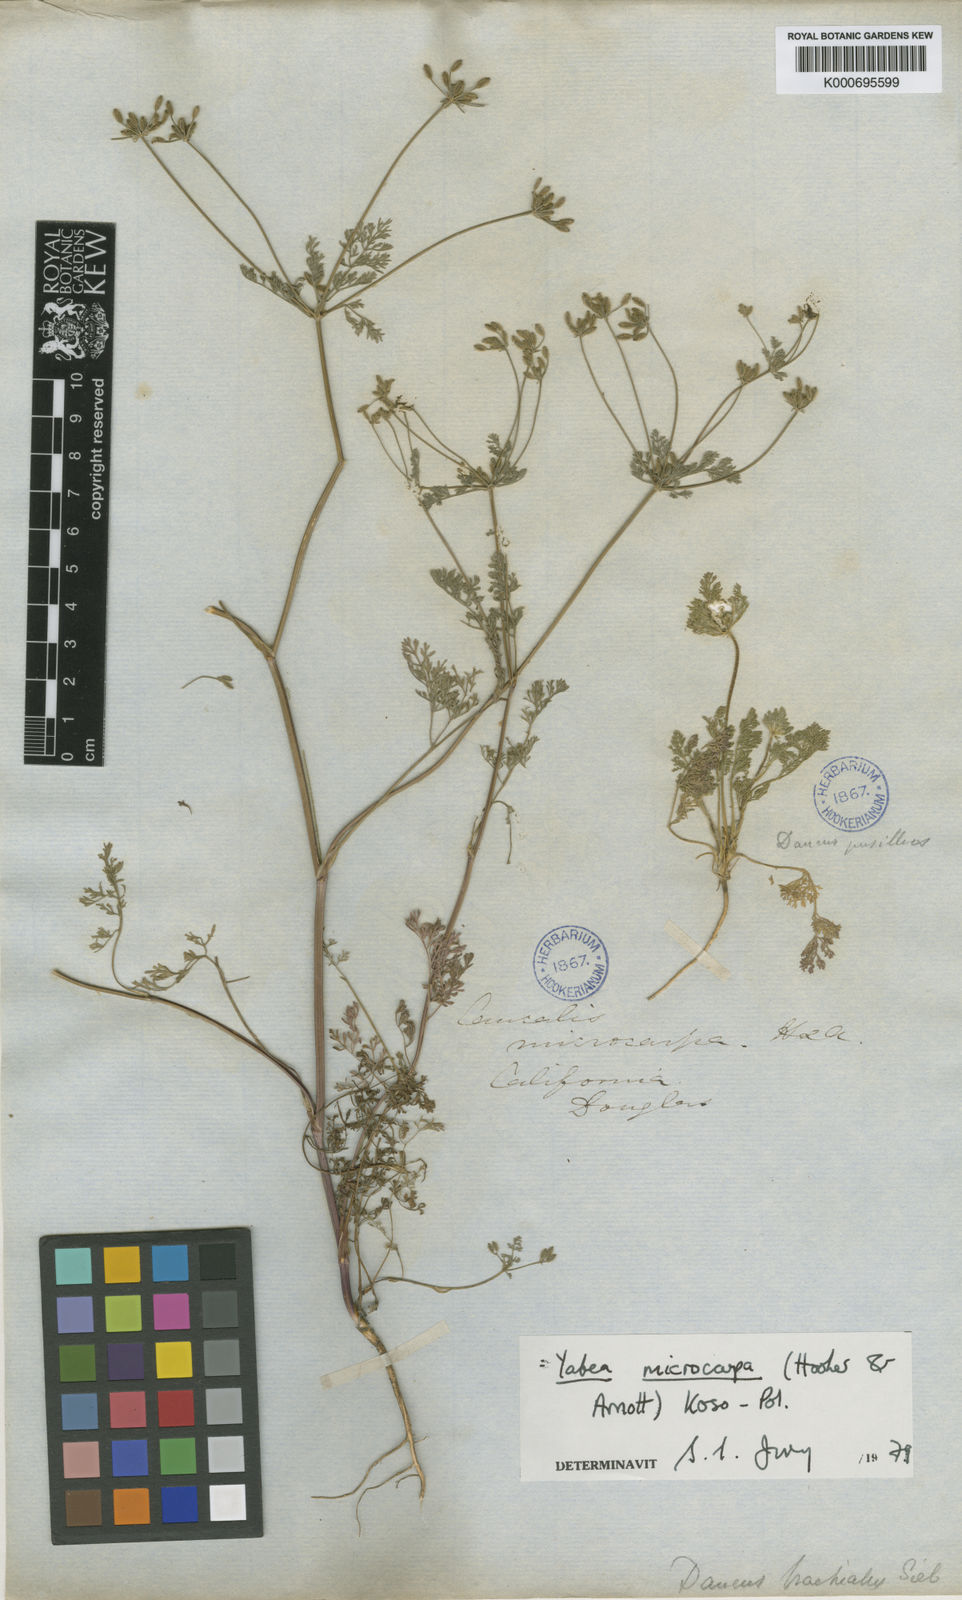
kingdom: Plantae
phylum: Tracheophyta
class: Magnoliopsida
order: Apiales
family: Apiaceae
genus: Yabea
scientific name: Yabea microcarpa
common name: False carrot
